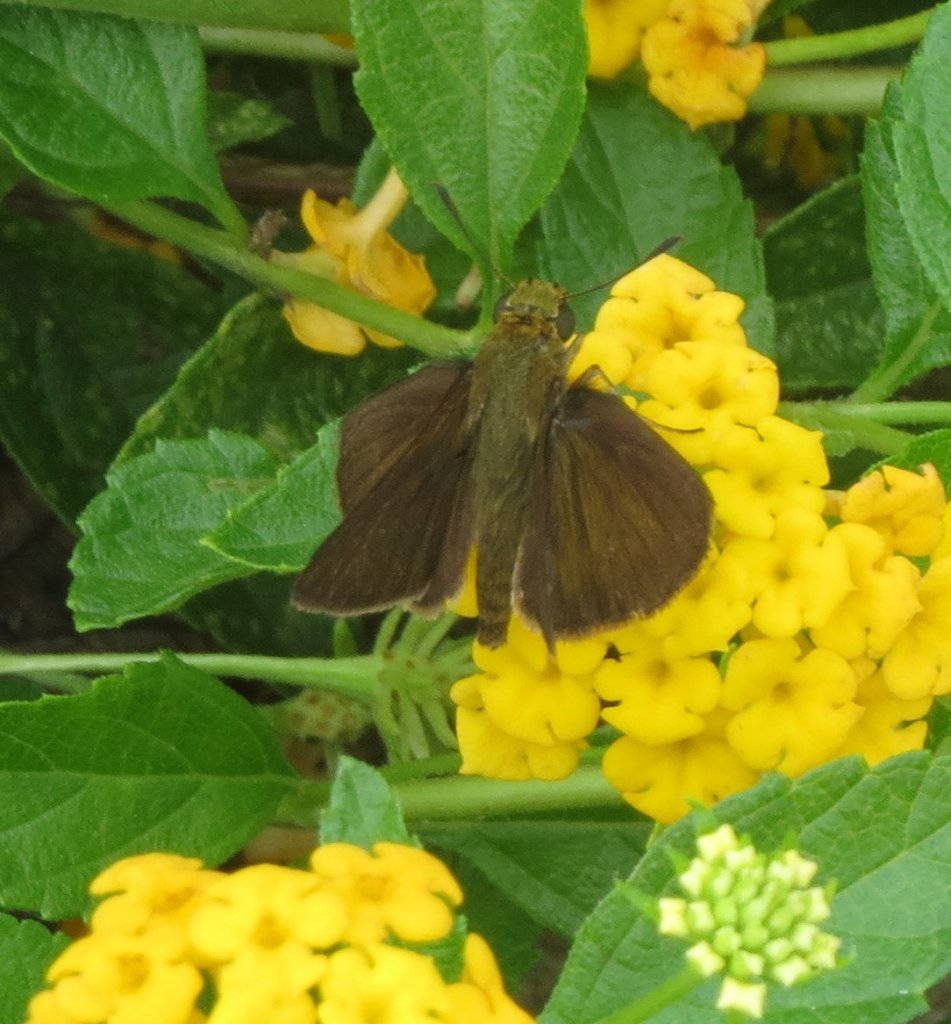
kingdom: Animalia
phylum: Arthropoda
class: Insecta
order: Lepidoptera
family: Hesperiidae
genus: Euphyes
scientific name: Euphyes vestris
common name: Dun Skipper
